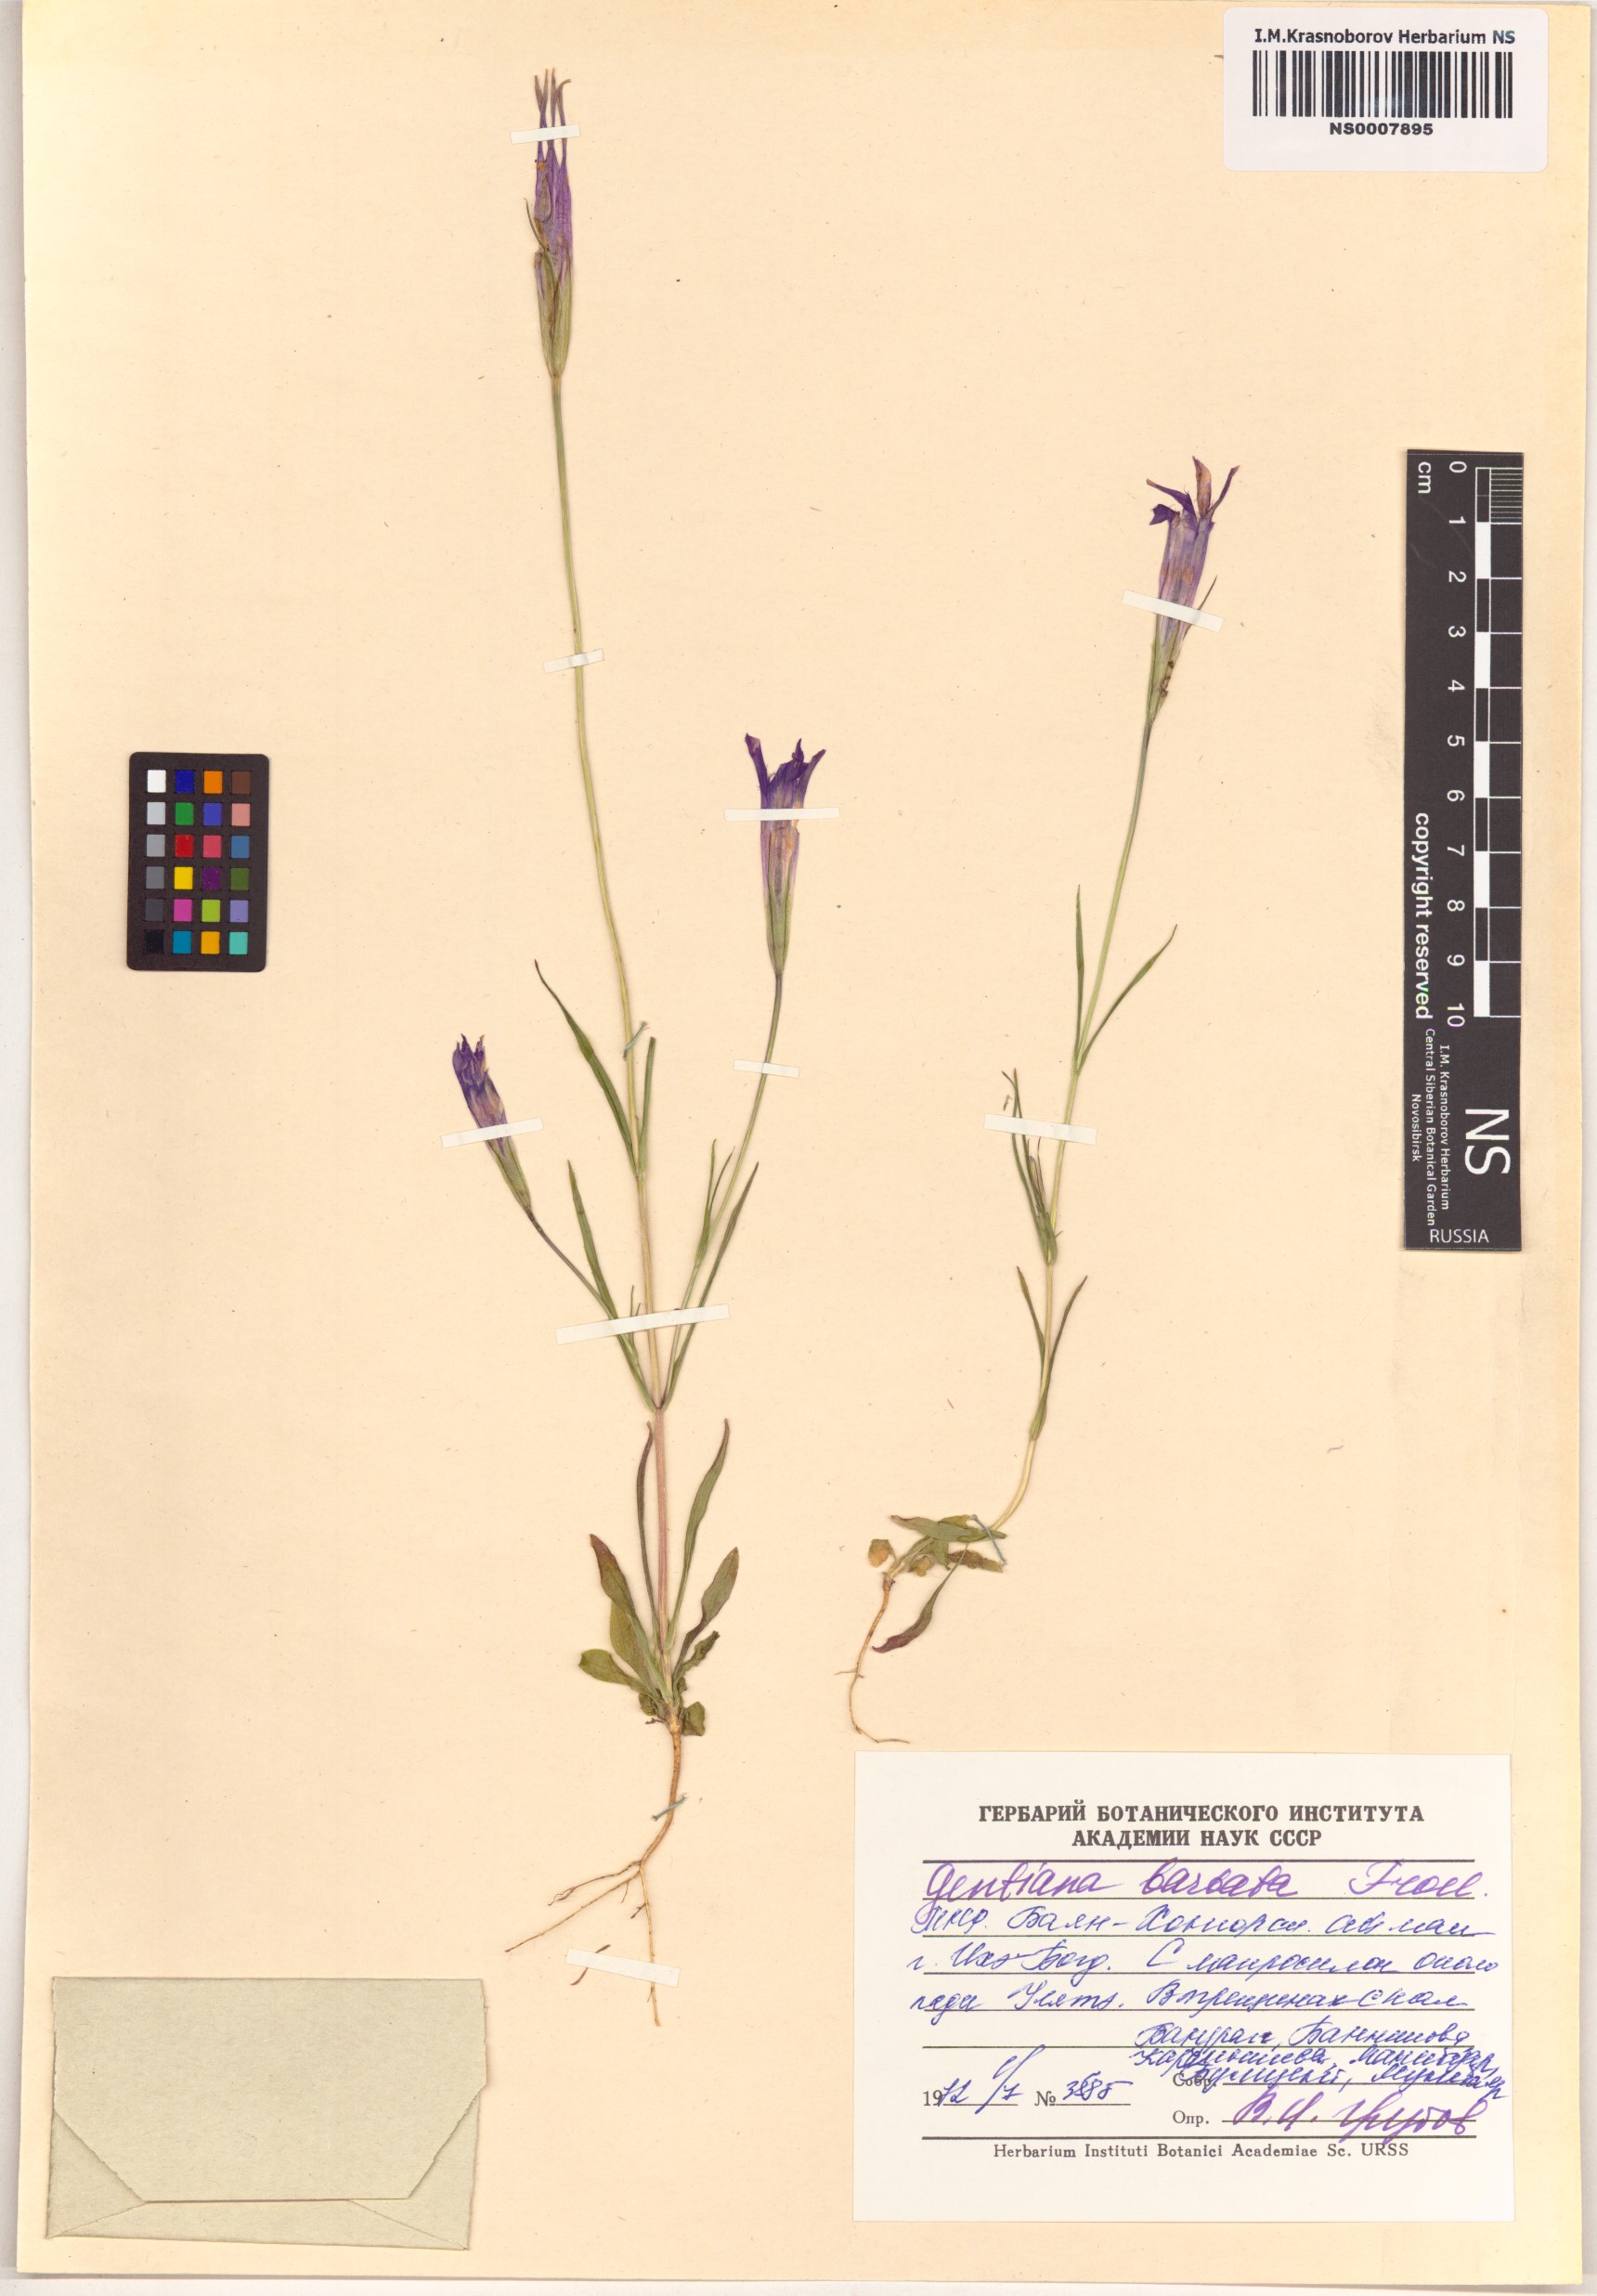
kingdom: Plantae
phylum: Tracheophyta
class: Magnoliopsida
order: Gentianales
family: Gentianaceae
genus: Gentianopsis
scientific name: Gentianopsis barbata
